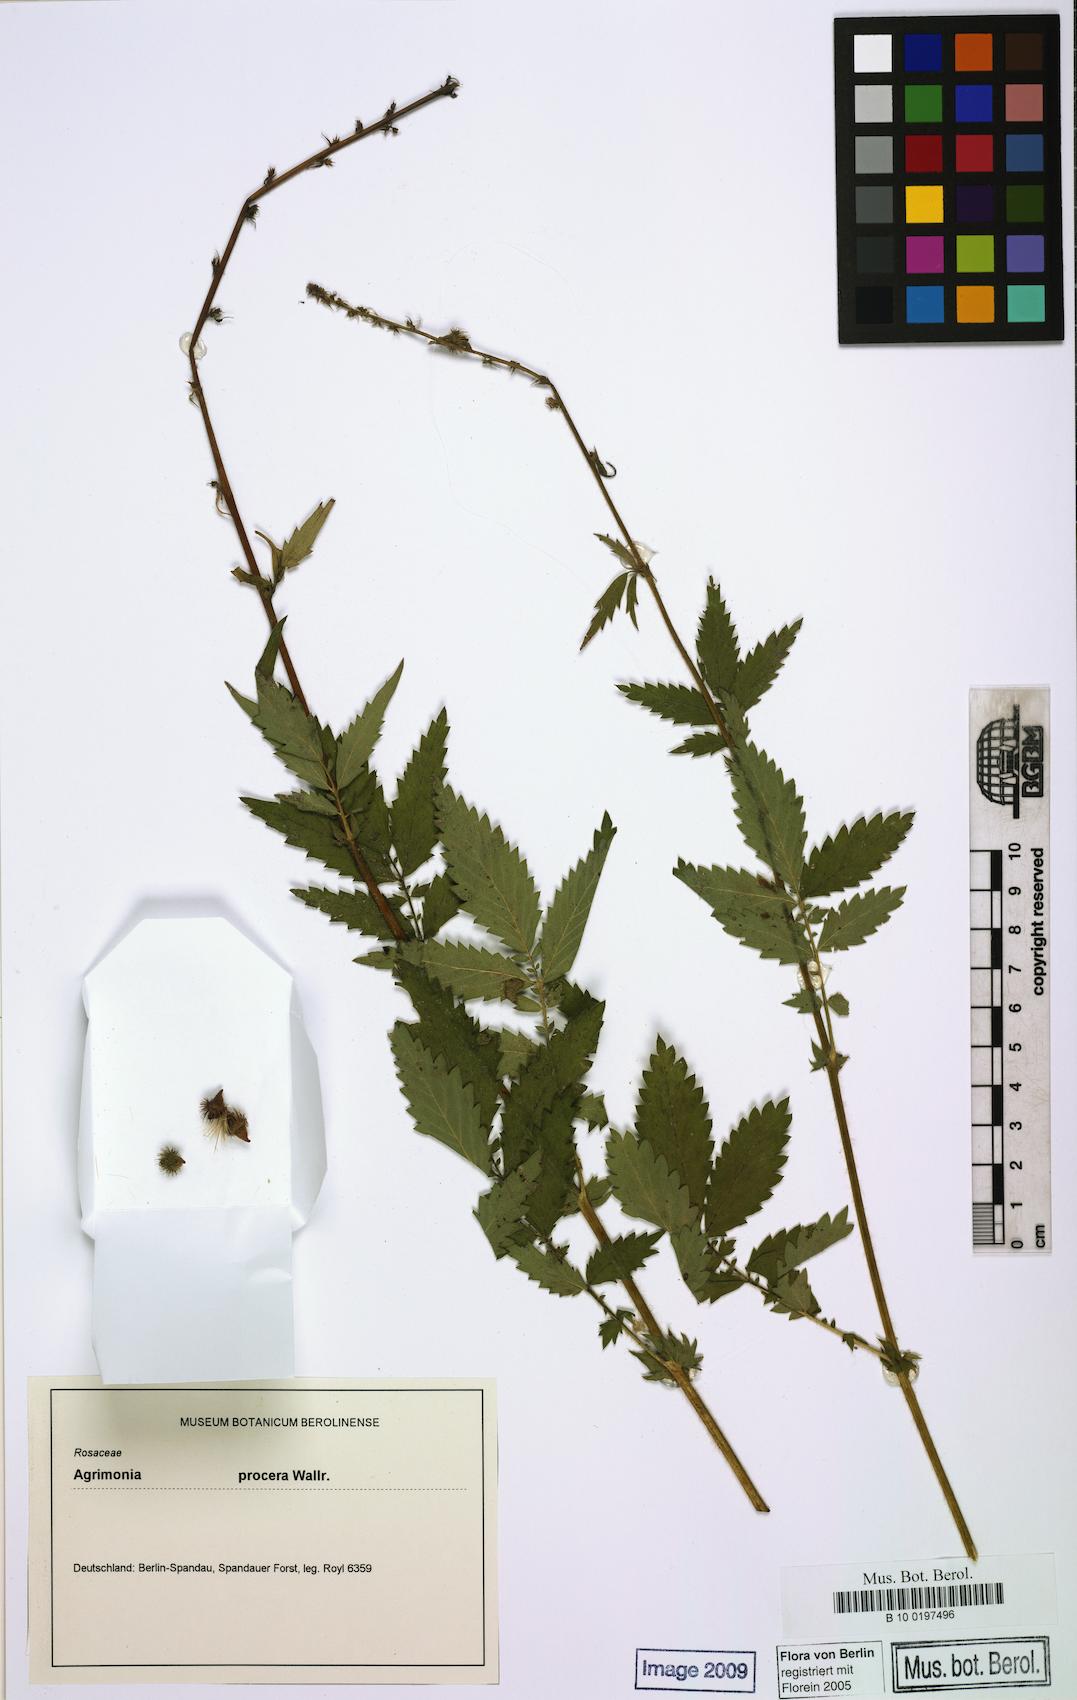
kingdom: Plantae
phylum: Tracheophyta
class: Magnoliopsida
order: Rosales
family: Rosaceae
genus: Agrimonia
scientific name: Agrimonia procera
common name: Fragrant agrimony
